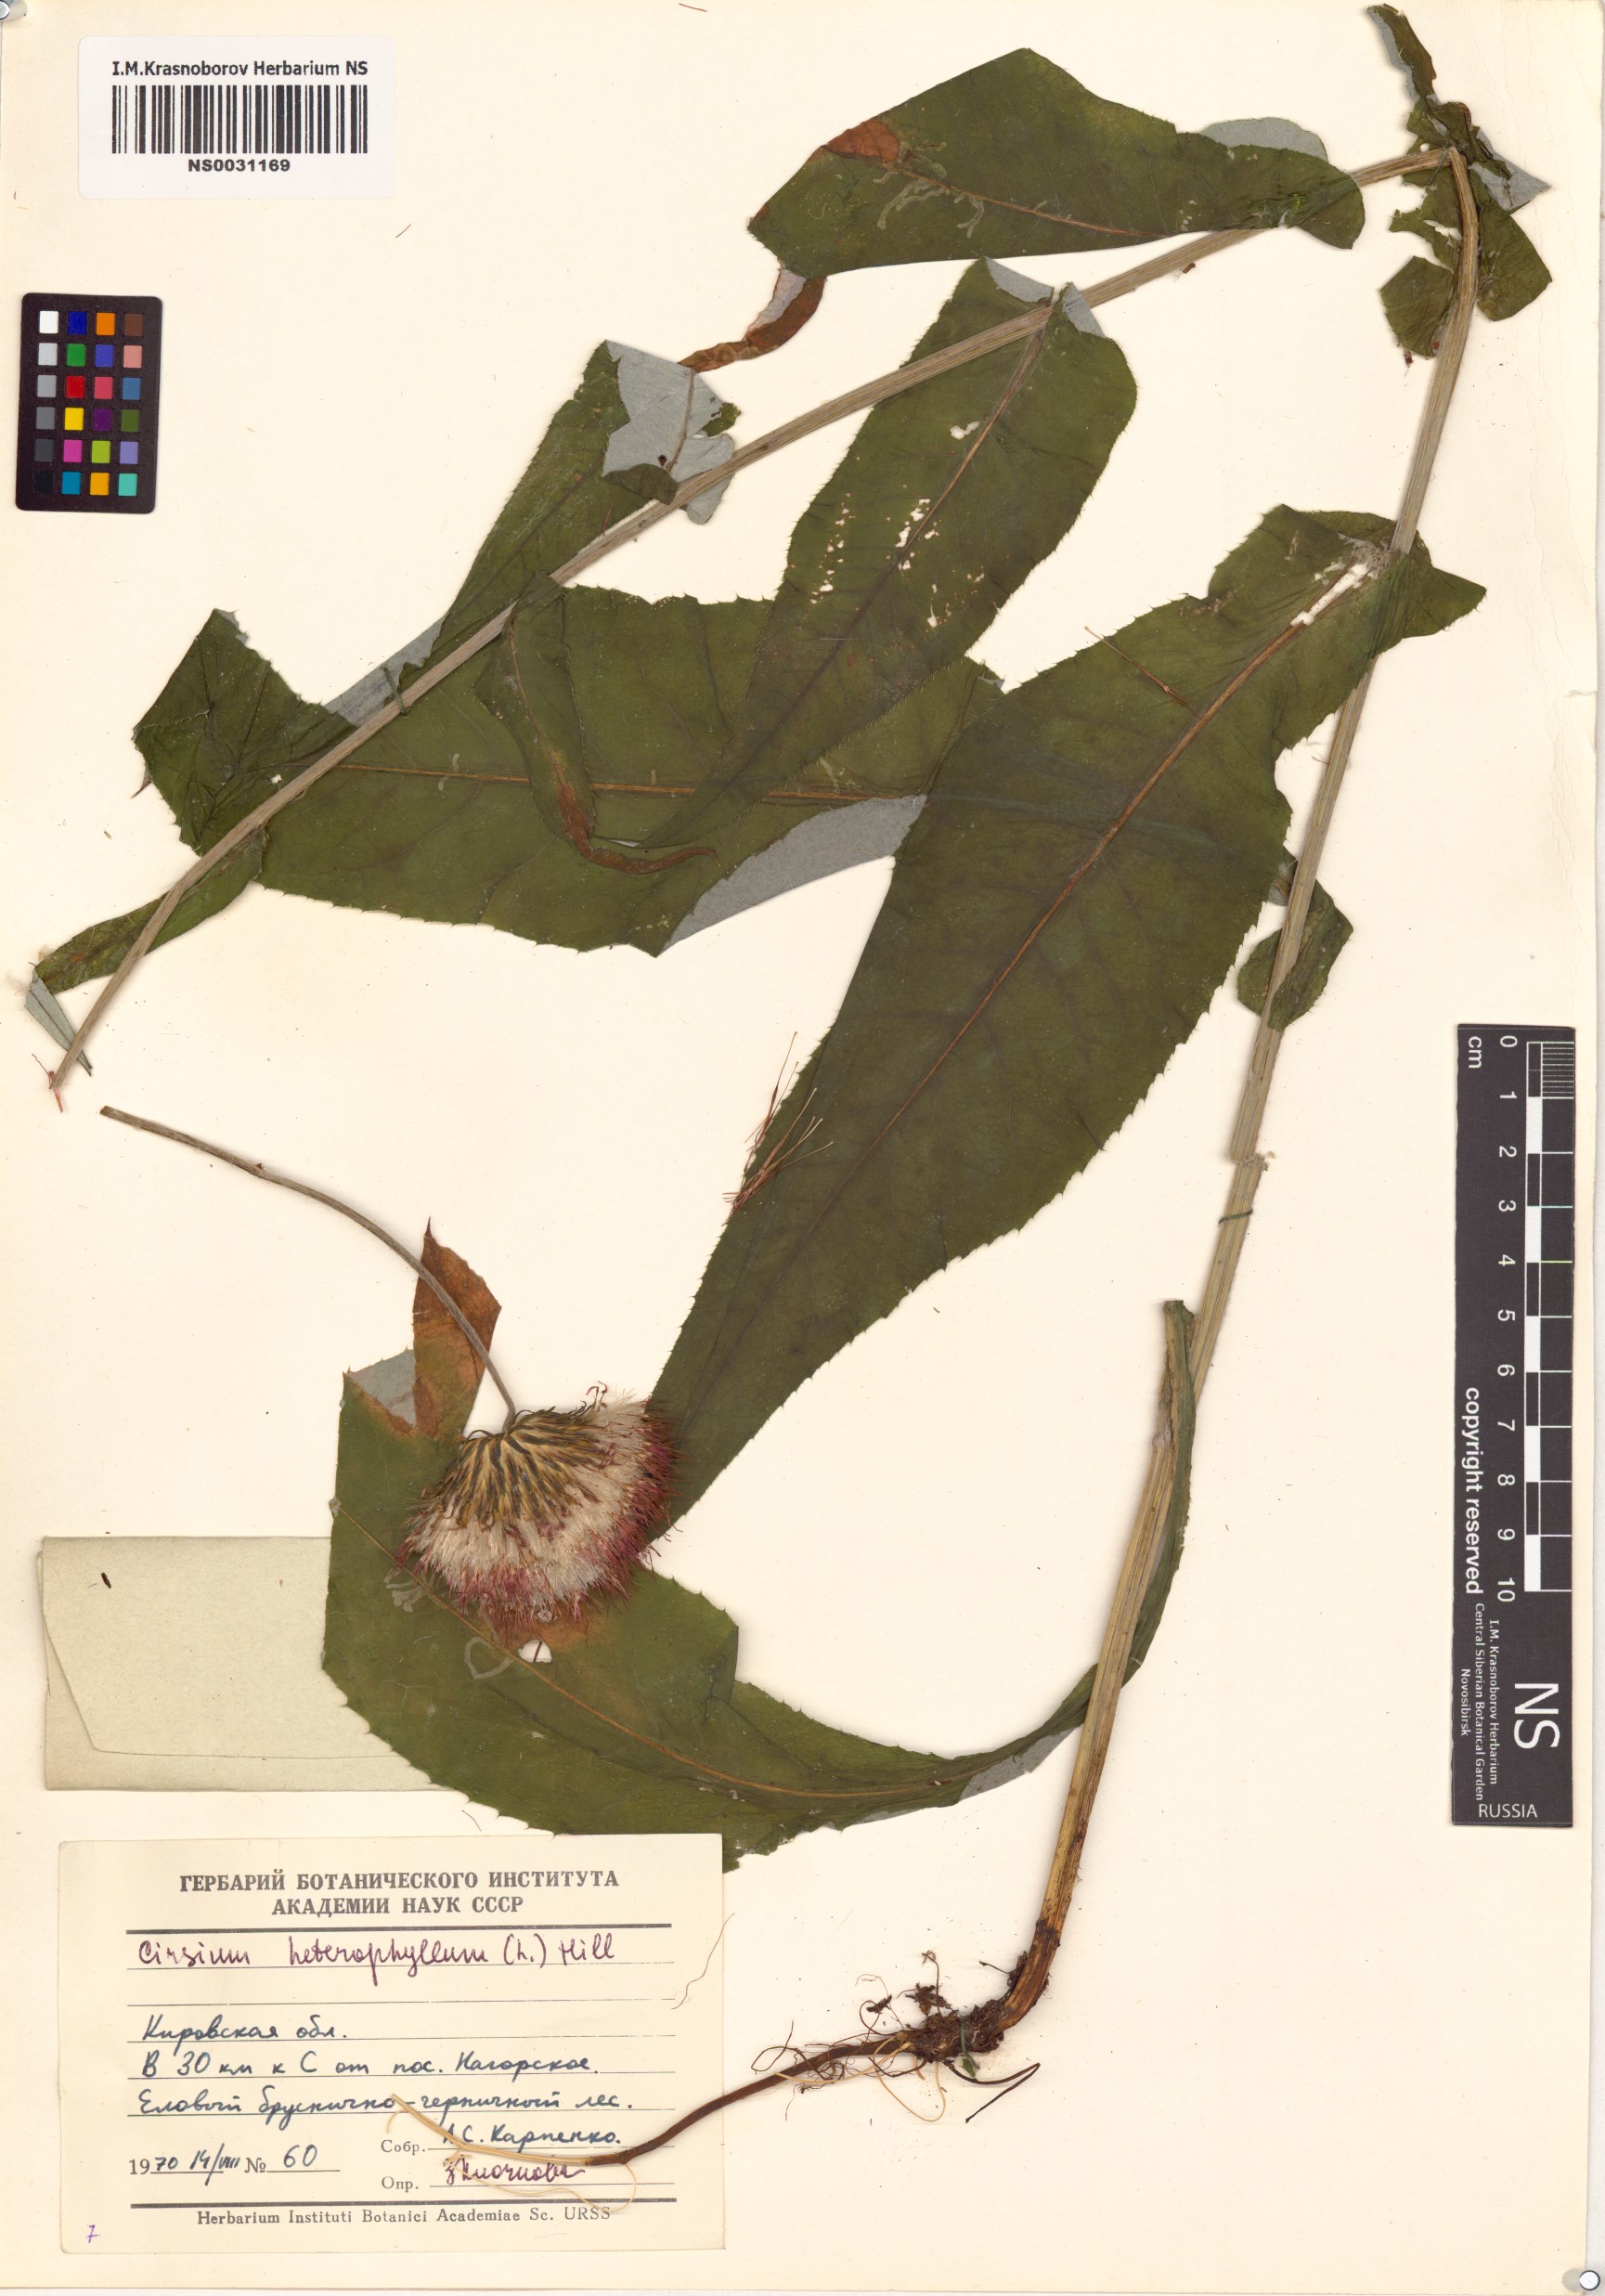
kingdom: Plantae
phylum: Tracheophyta
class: Magnoliopsida
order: Asterales
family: Asteraceae
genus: Cirsium
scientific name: Cirsium heterophyllum
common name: Melancholy thistle
